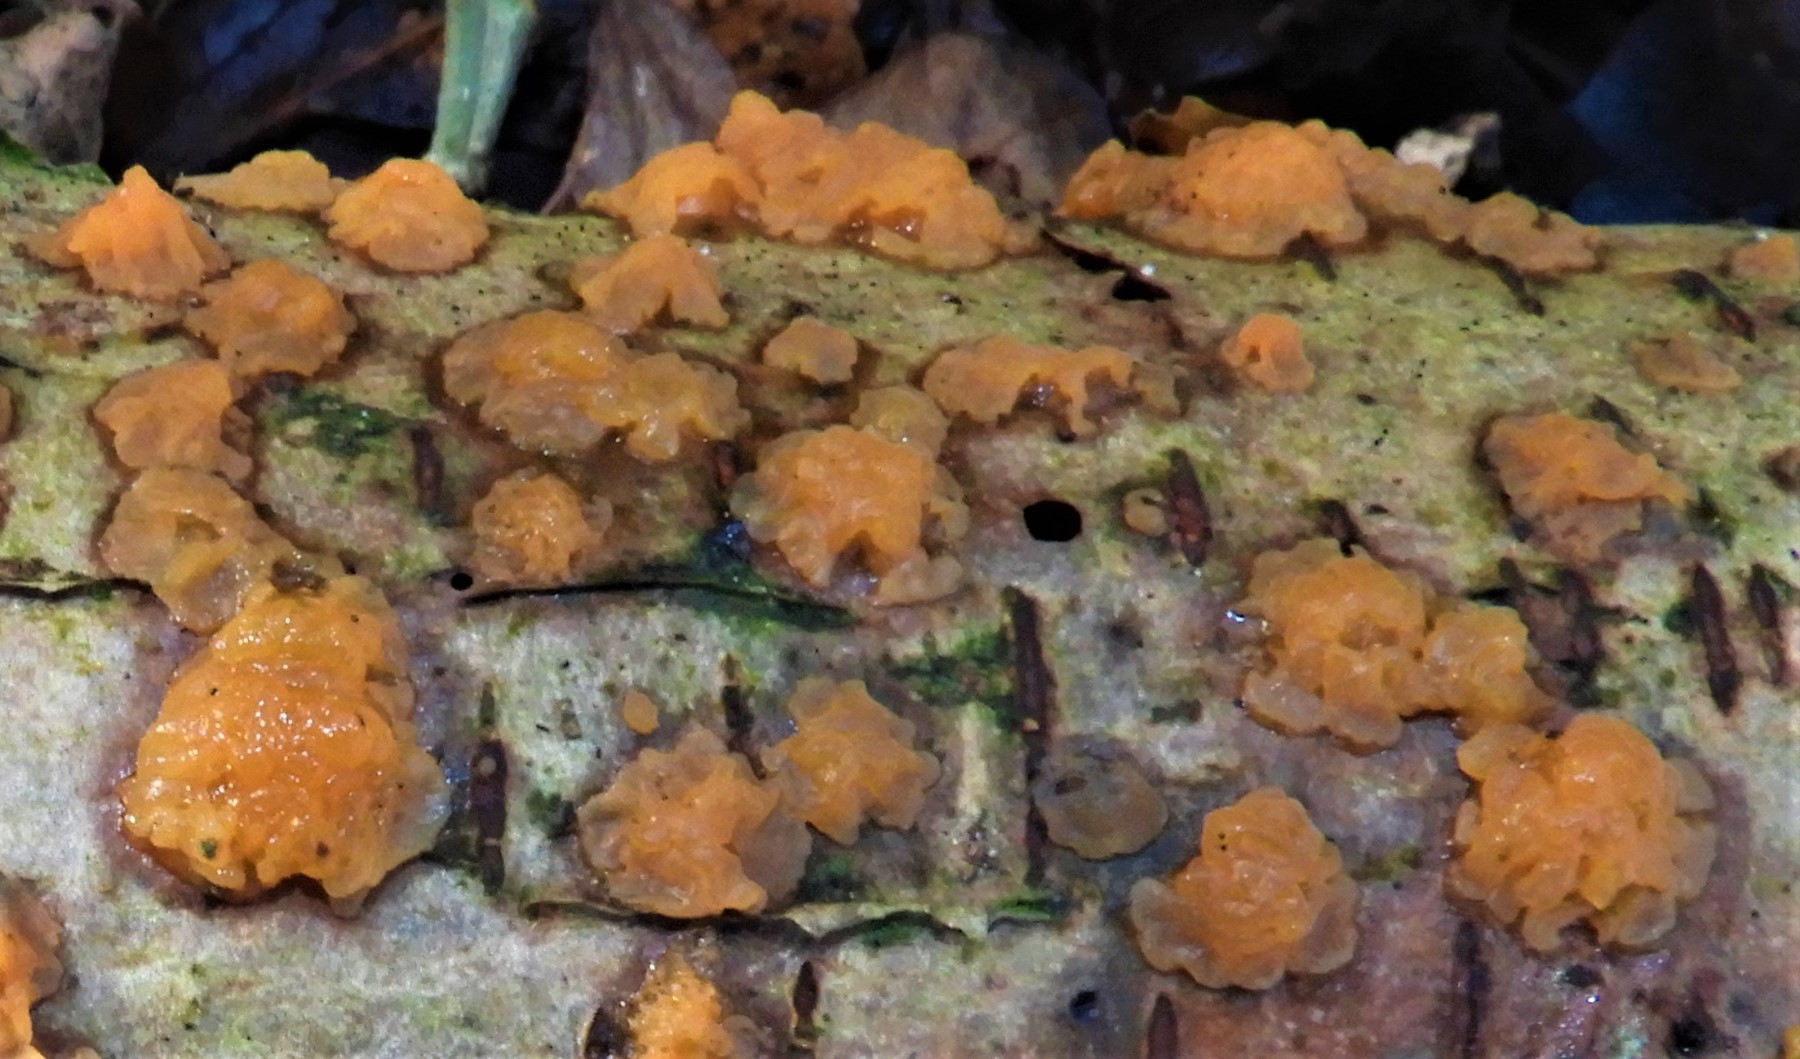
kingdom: Fungi
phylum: Basidiomycota
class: Dacrymycetes
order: Dacrymycetales
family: Dacrymycetaceae
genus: Dacrymyces
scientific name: Dacrymyces
